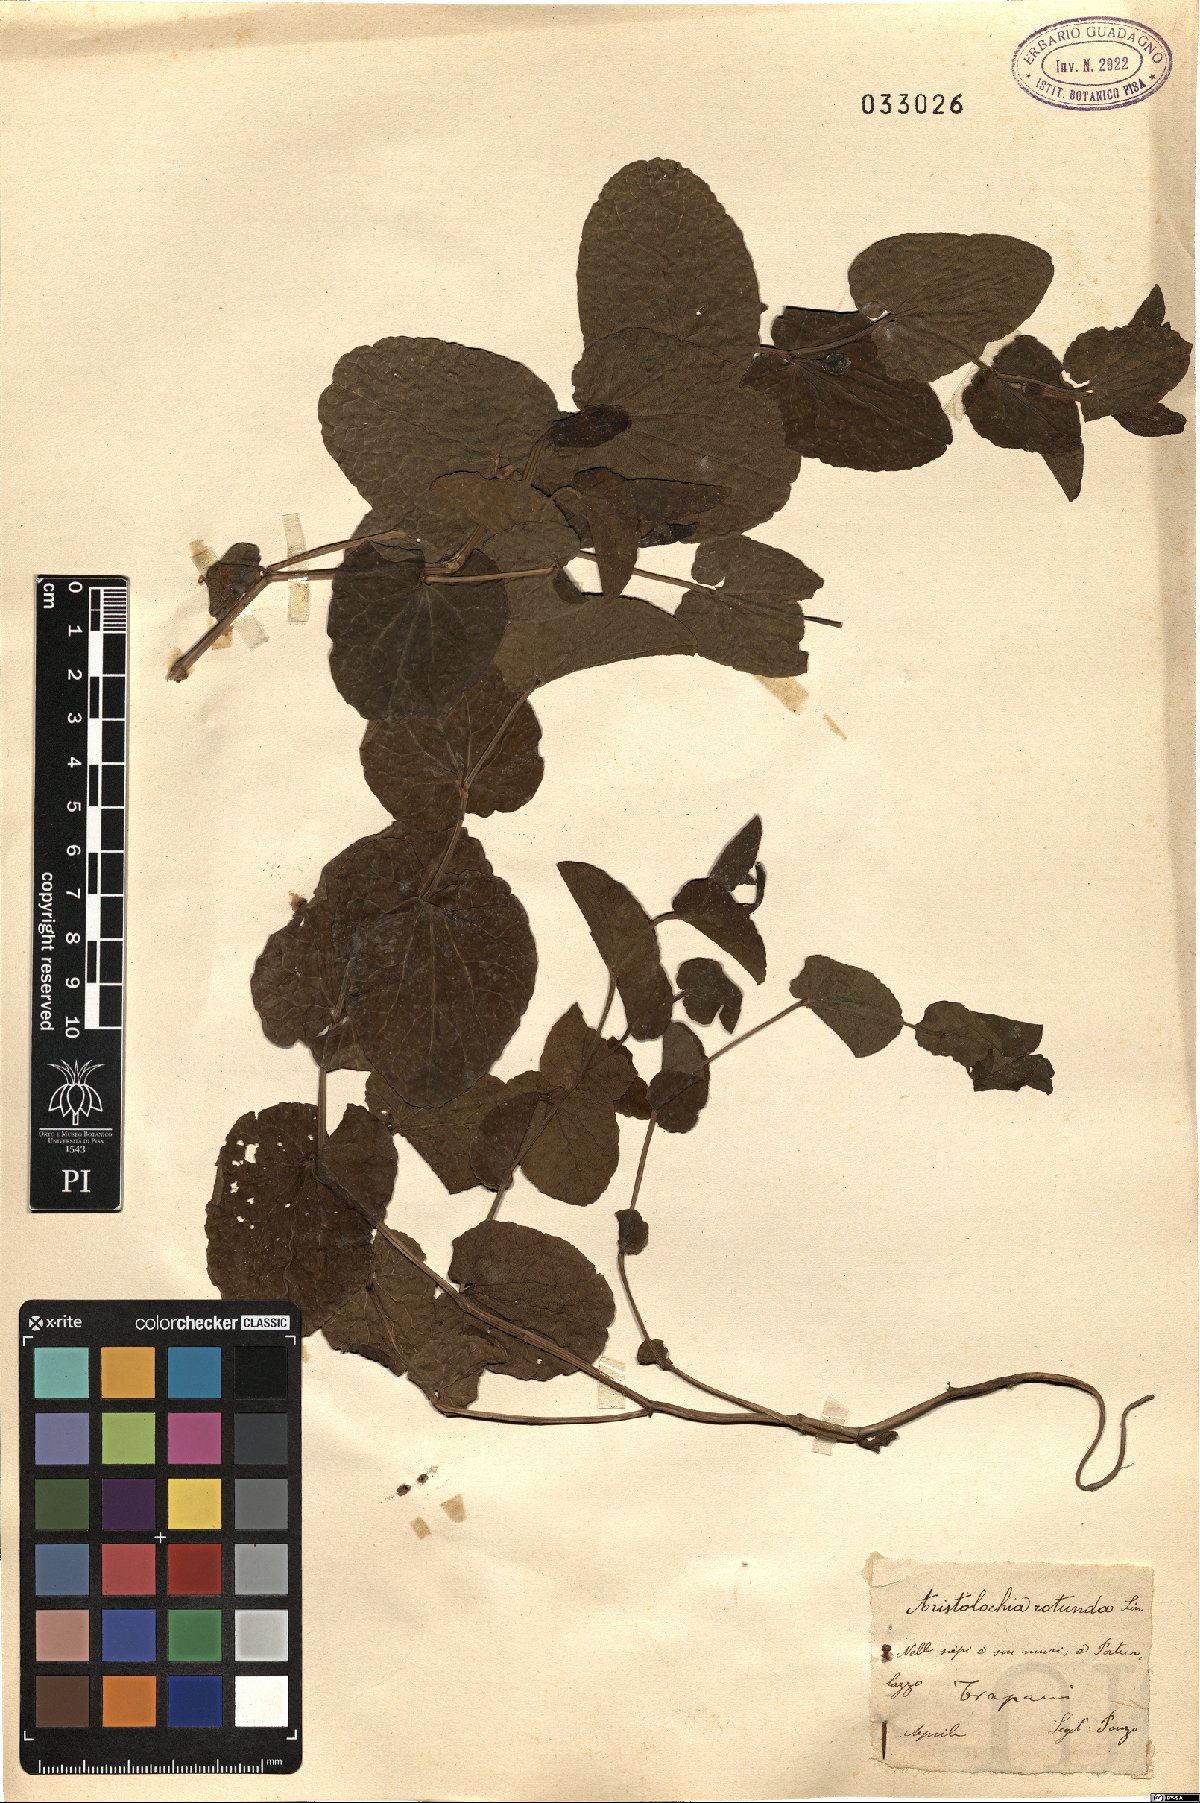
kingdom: Plantae
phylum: Tracheophyta
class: Magnoliopsida
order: Piperales
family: Aristolochiaceae
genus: Aristolochia
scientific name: Aristolochia rotunda
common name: Smearwort
